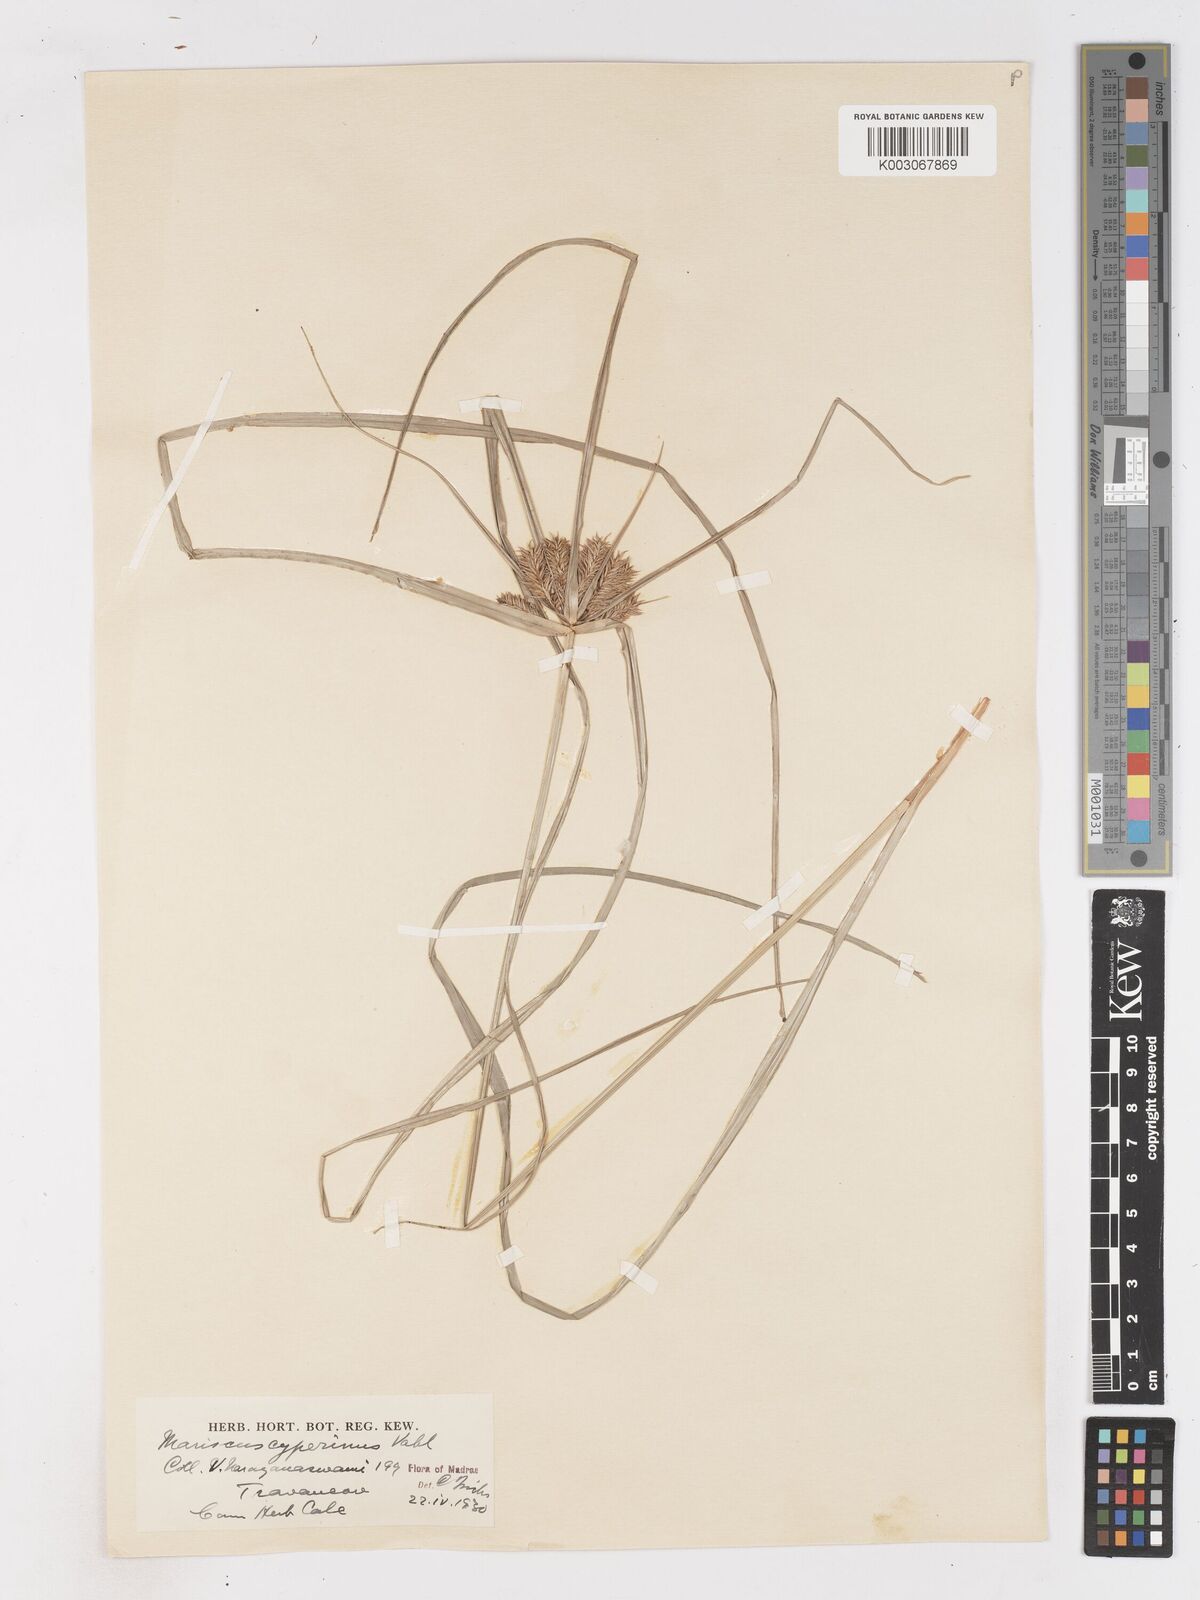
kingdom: Plantae
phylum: Tracheophyta
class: Liliopsida
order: Poales
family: Cyperaceae
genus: Cyperus
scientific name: Cyperus cyperinus
